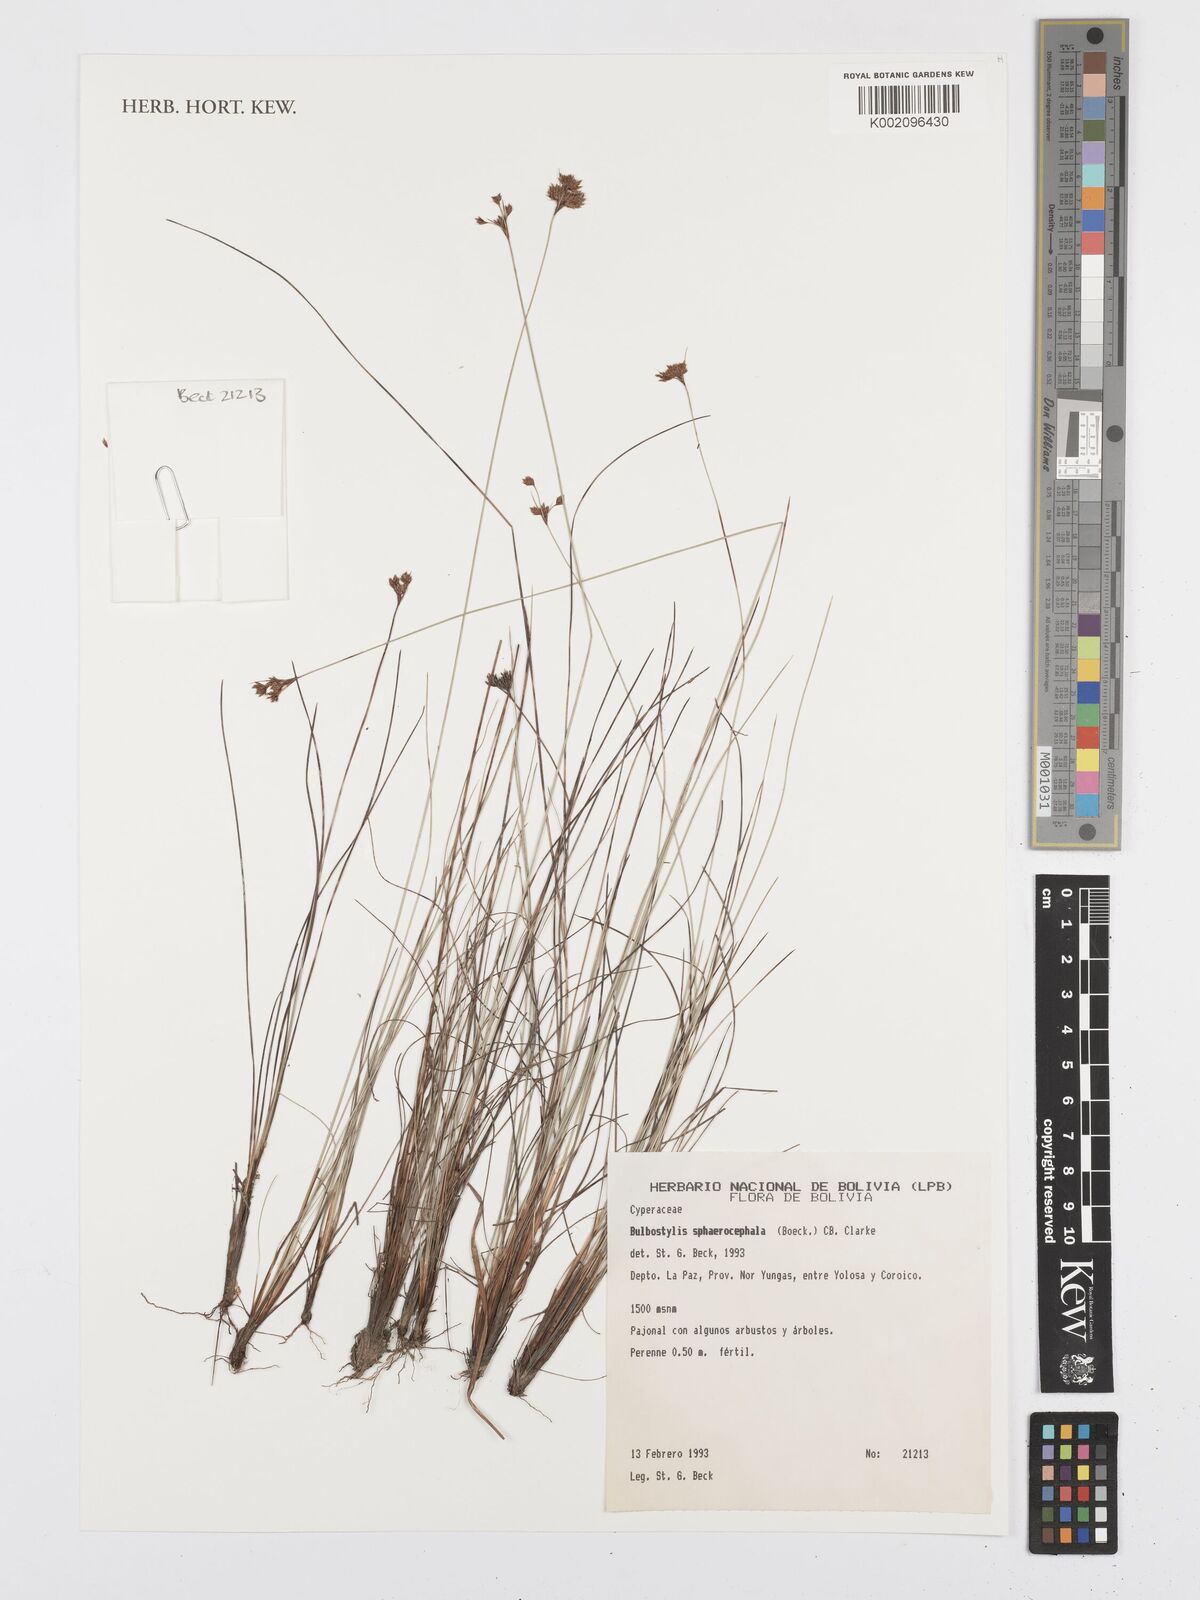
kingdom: Plantae
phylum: Tracheophyta
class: Liliopsida
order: Poales
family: Cyperaceae
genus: Bulbostylis
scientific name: Bulbostylis sphaerocephala
